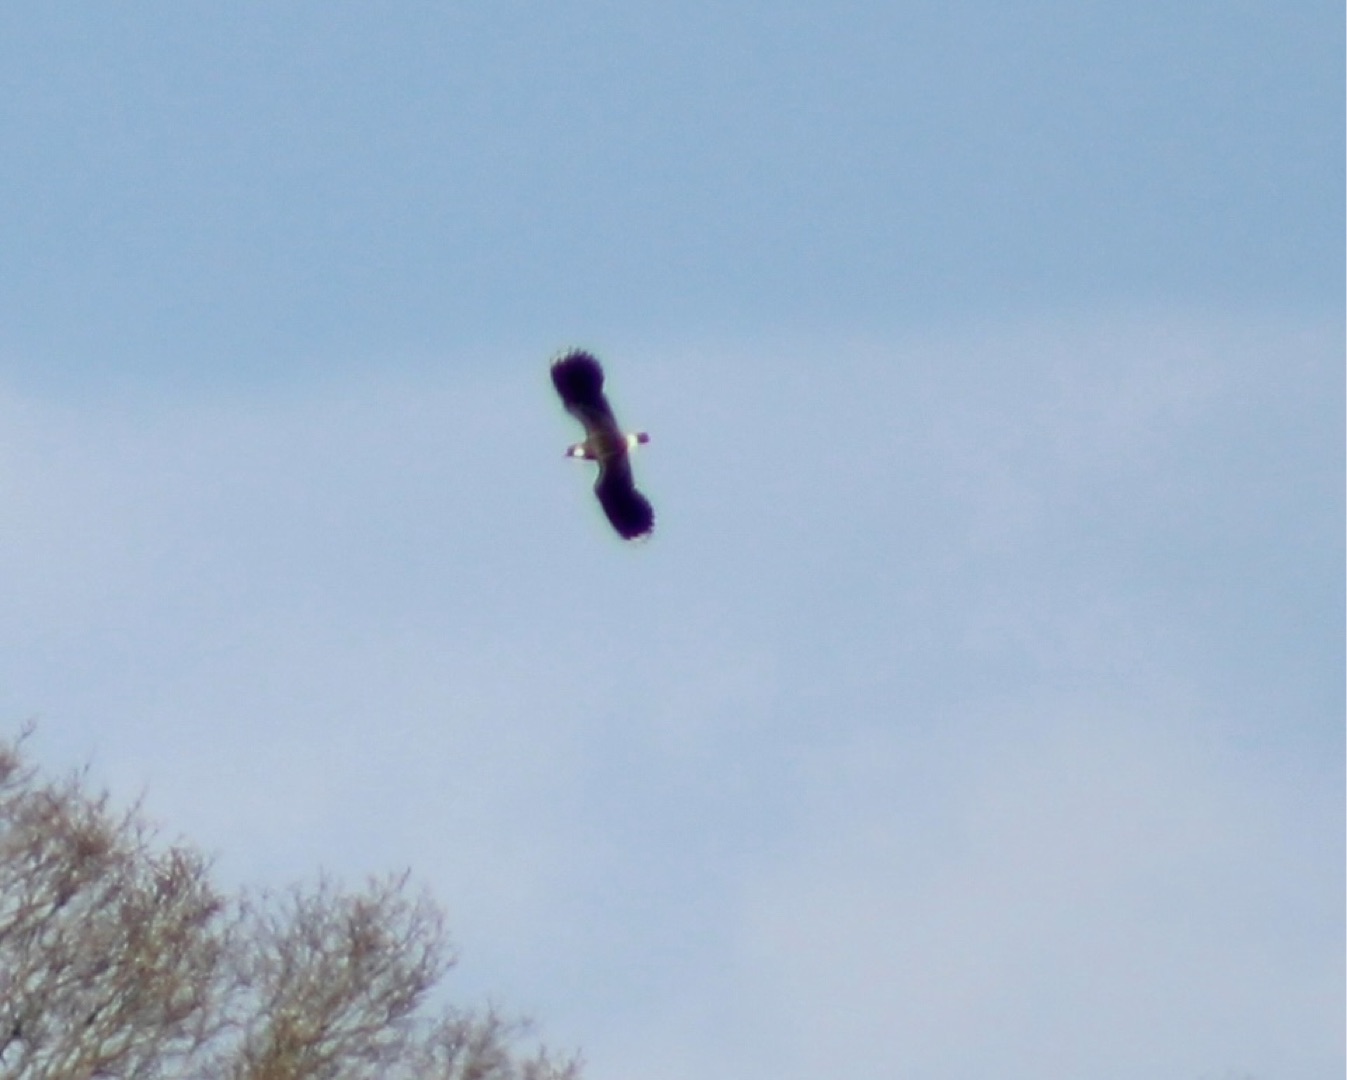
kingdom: Animalia
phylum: Chordata
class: Aves
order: Charadriiformes
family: Charadriidae
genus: Vanellus
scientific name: Vanellus vanellus
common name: Vibe
